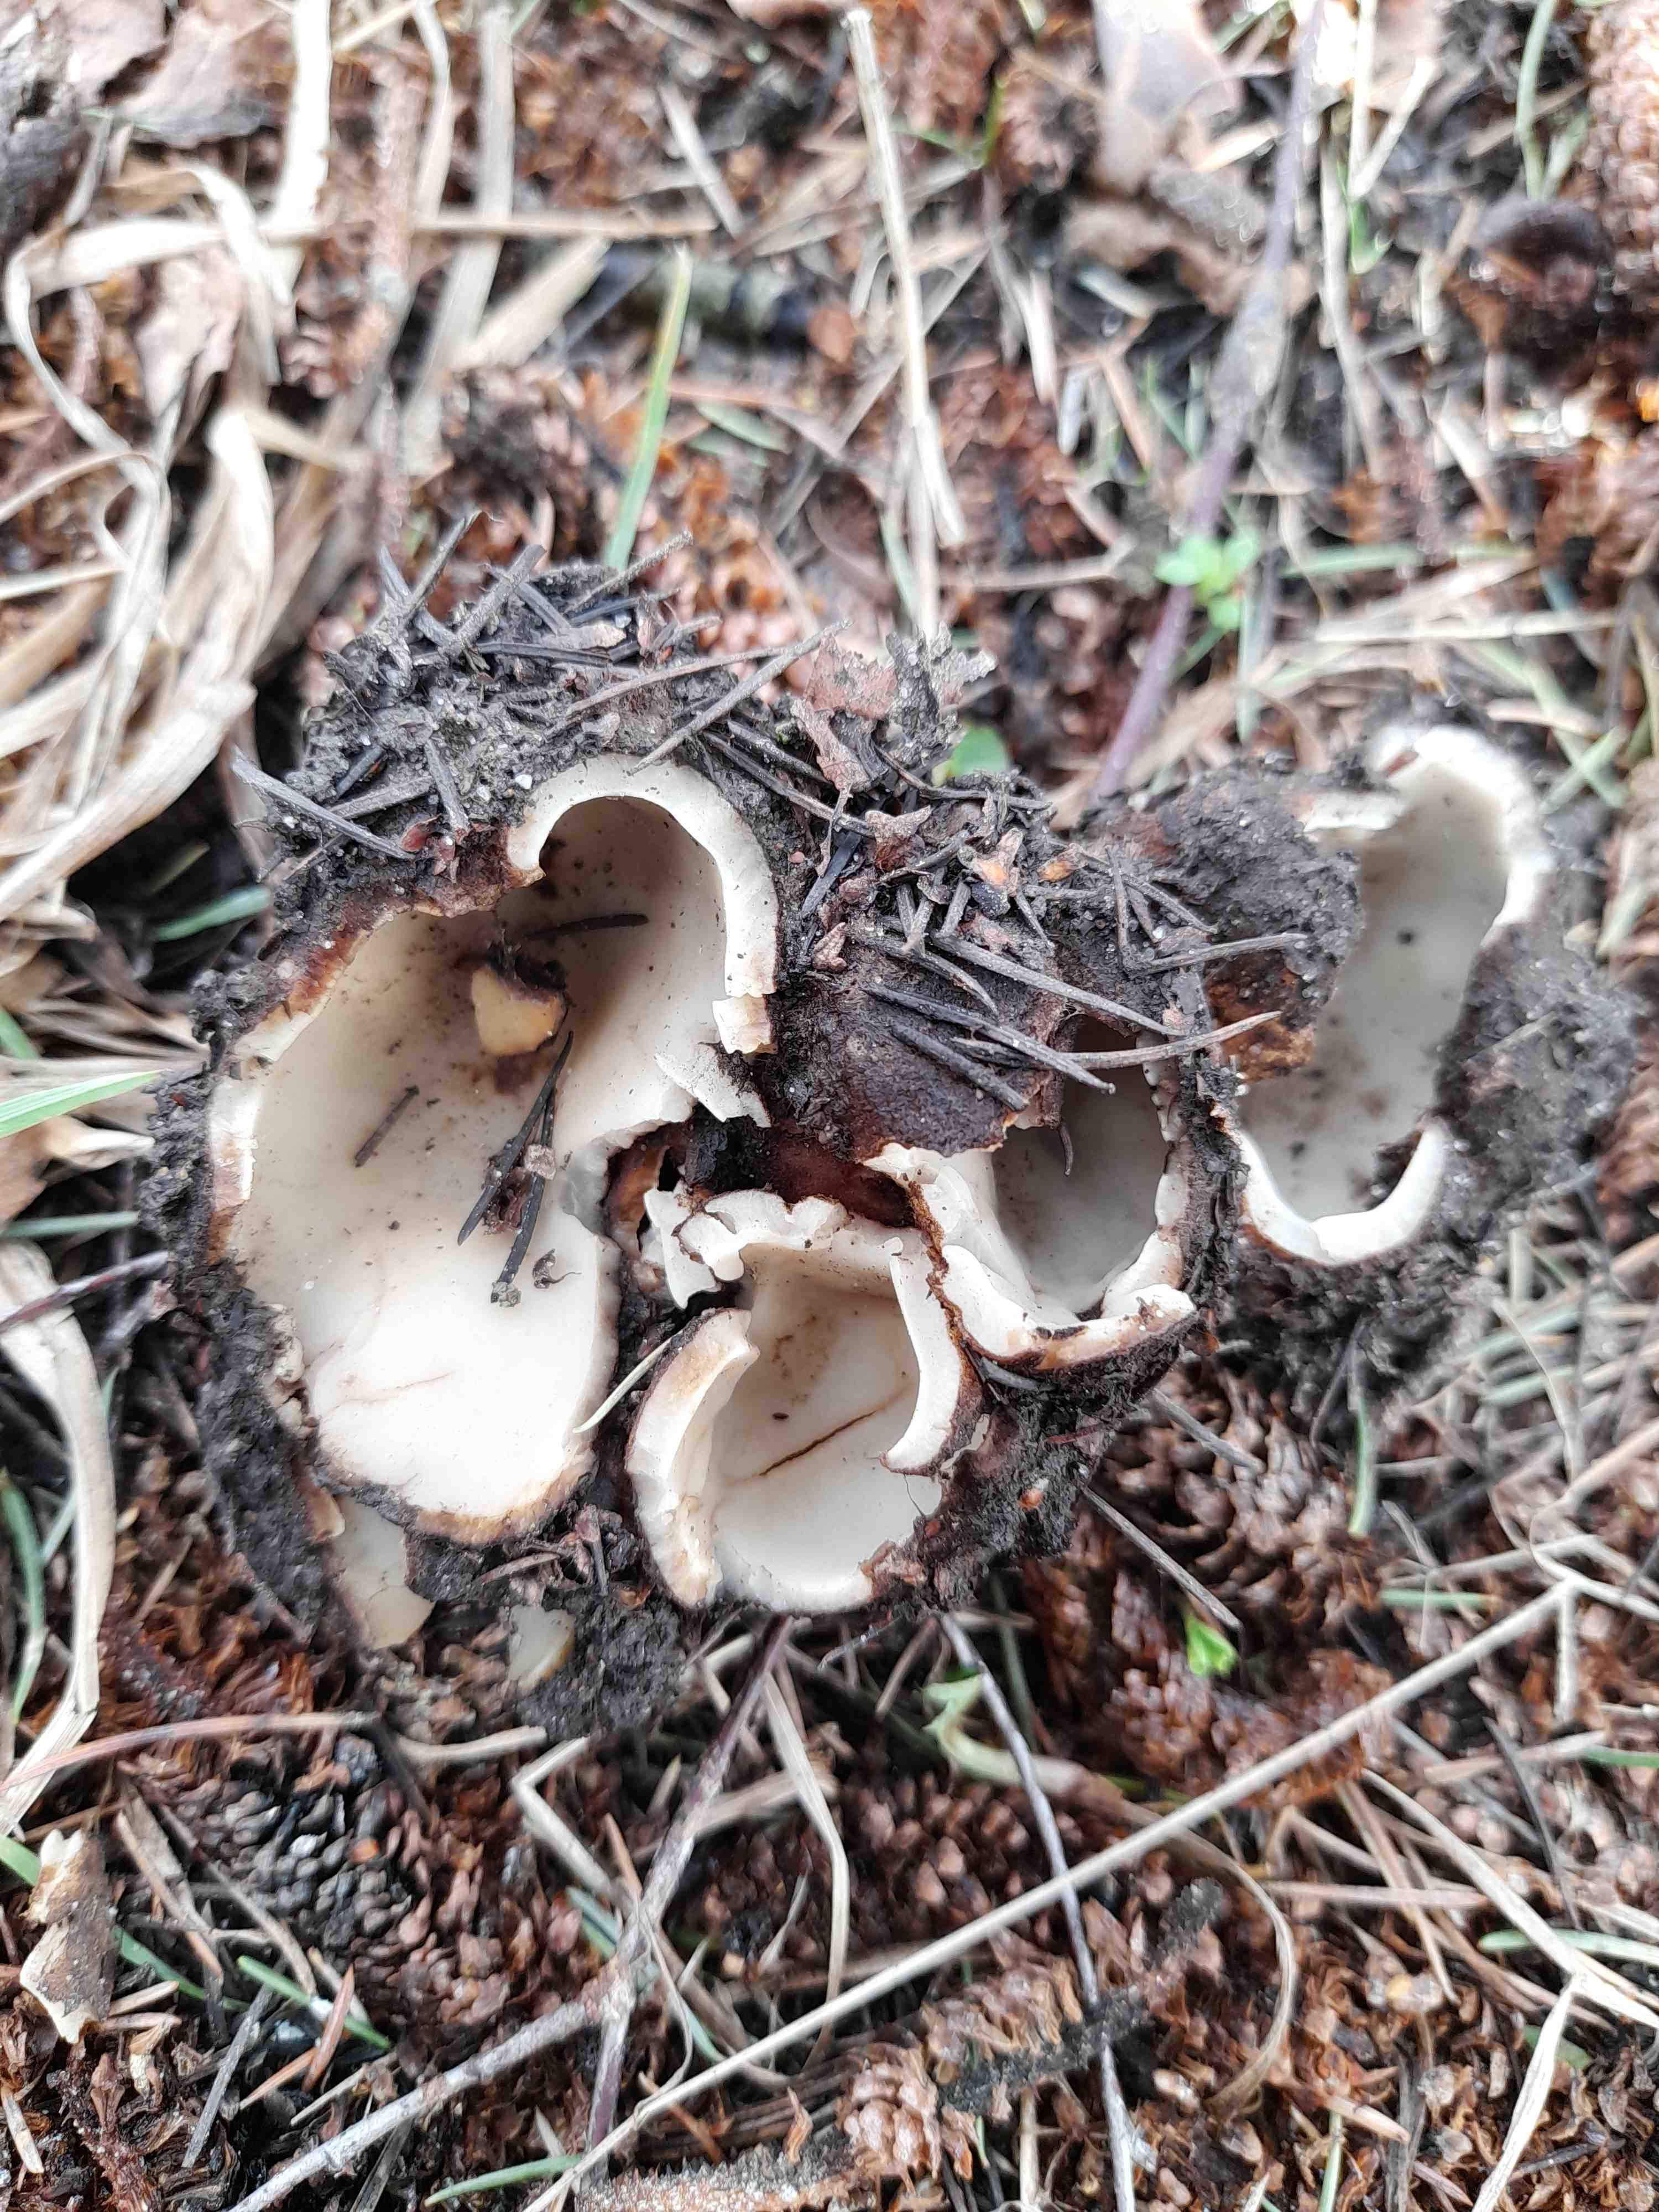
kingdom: Fungi
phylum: Ascomycota
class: Pezizomycetes
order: Pezizales
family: Pyronemataceae
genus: Geopora
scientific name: Geopora sumneriana
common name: vår-jordbæger
